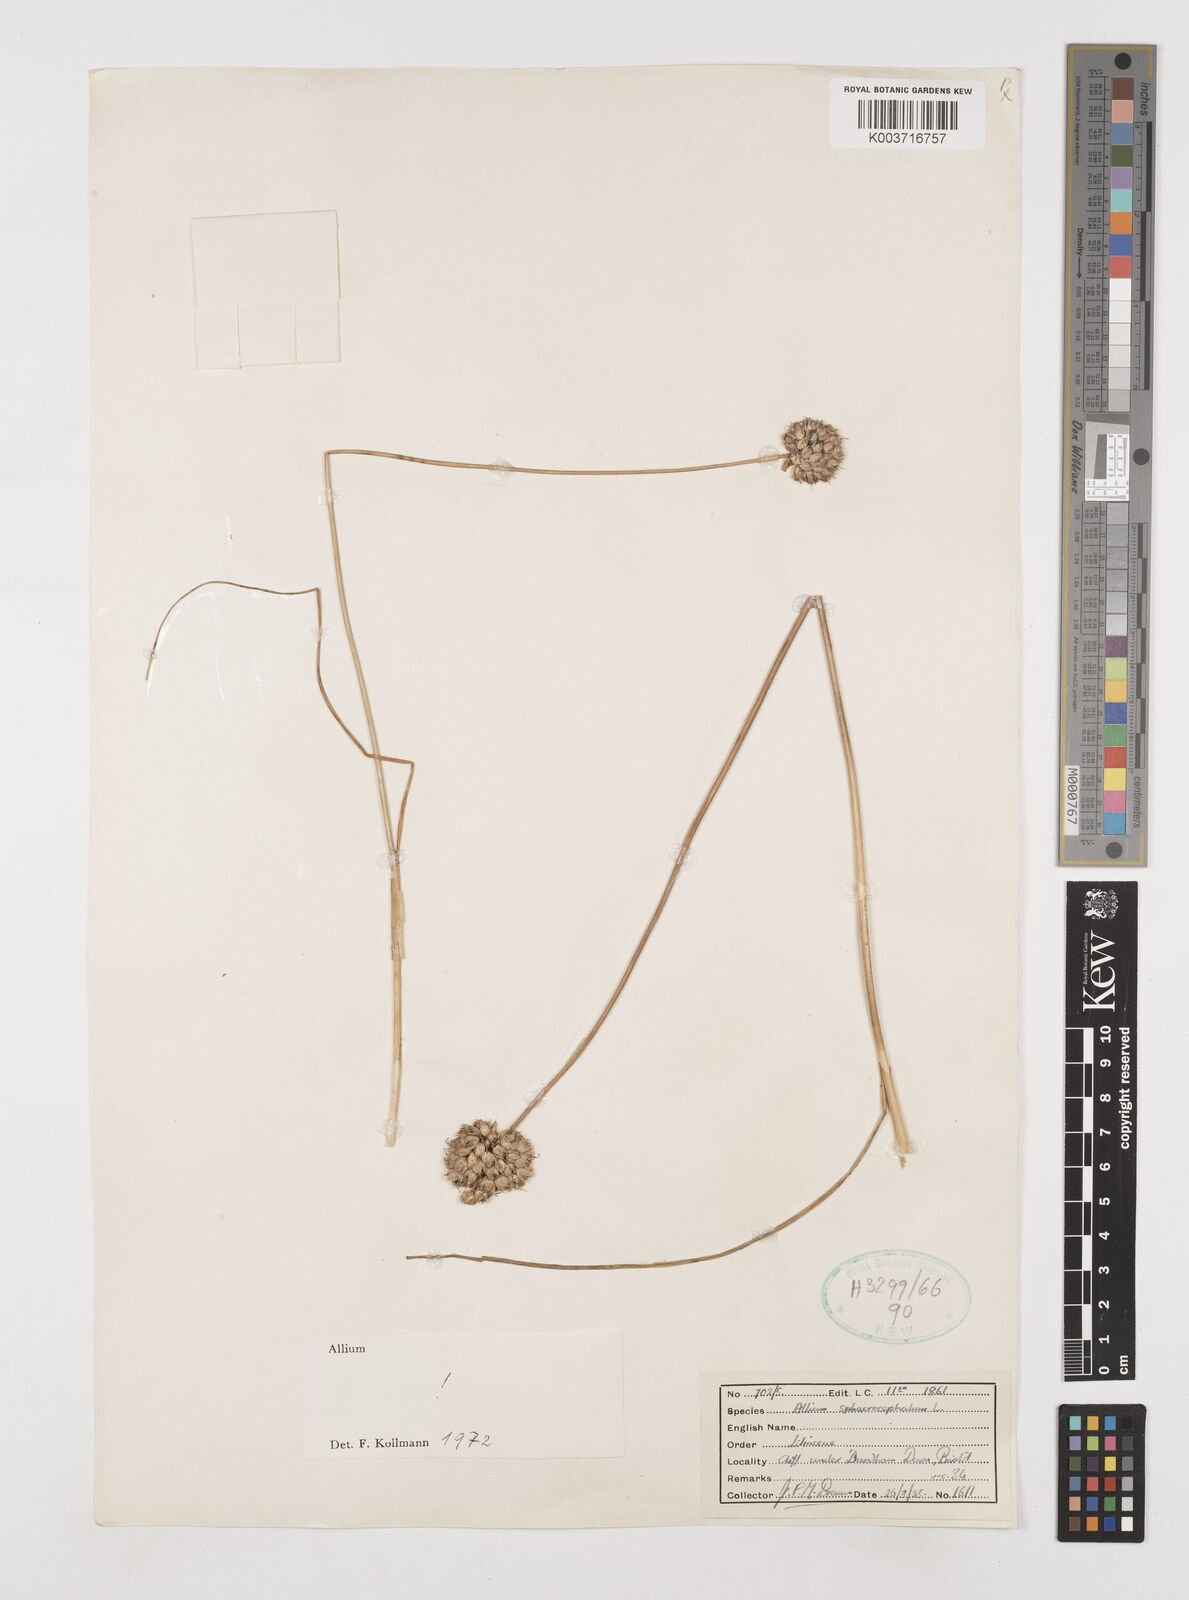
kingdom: Plantae
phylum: Tracheophyta
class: Liliopsida
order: Asparagales
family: Amaryllidaceae
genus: Allium
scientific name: Allium sphaerocephalon
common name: Round-headed leek
